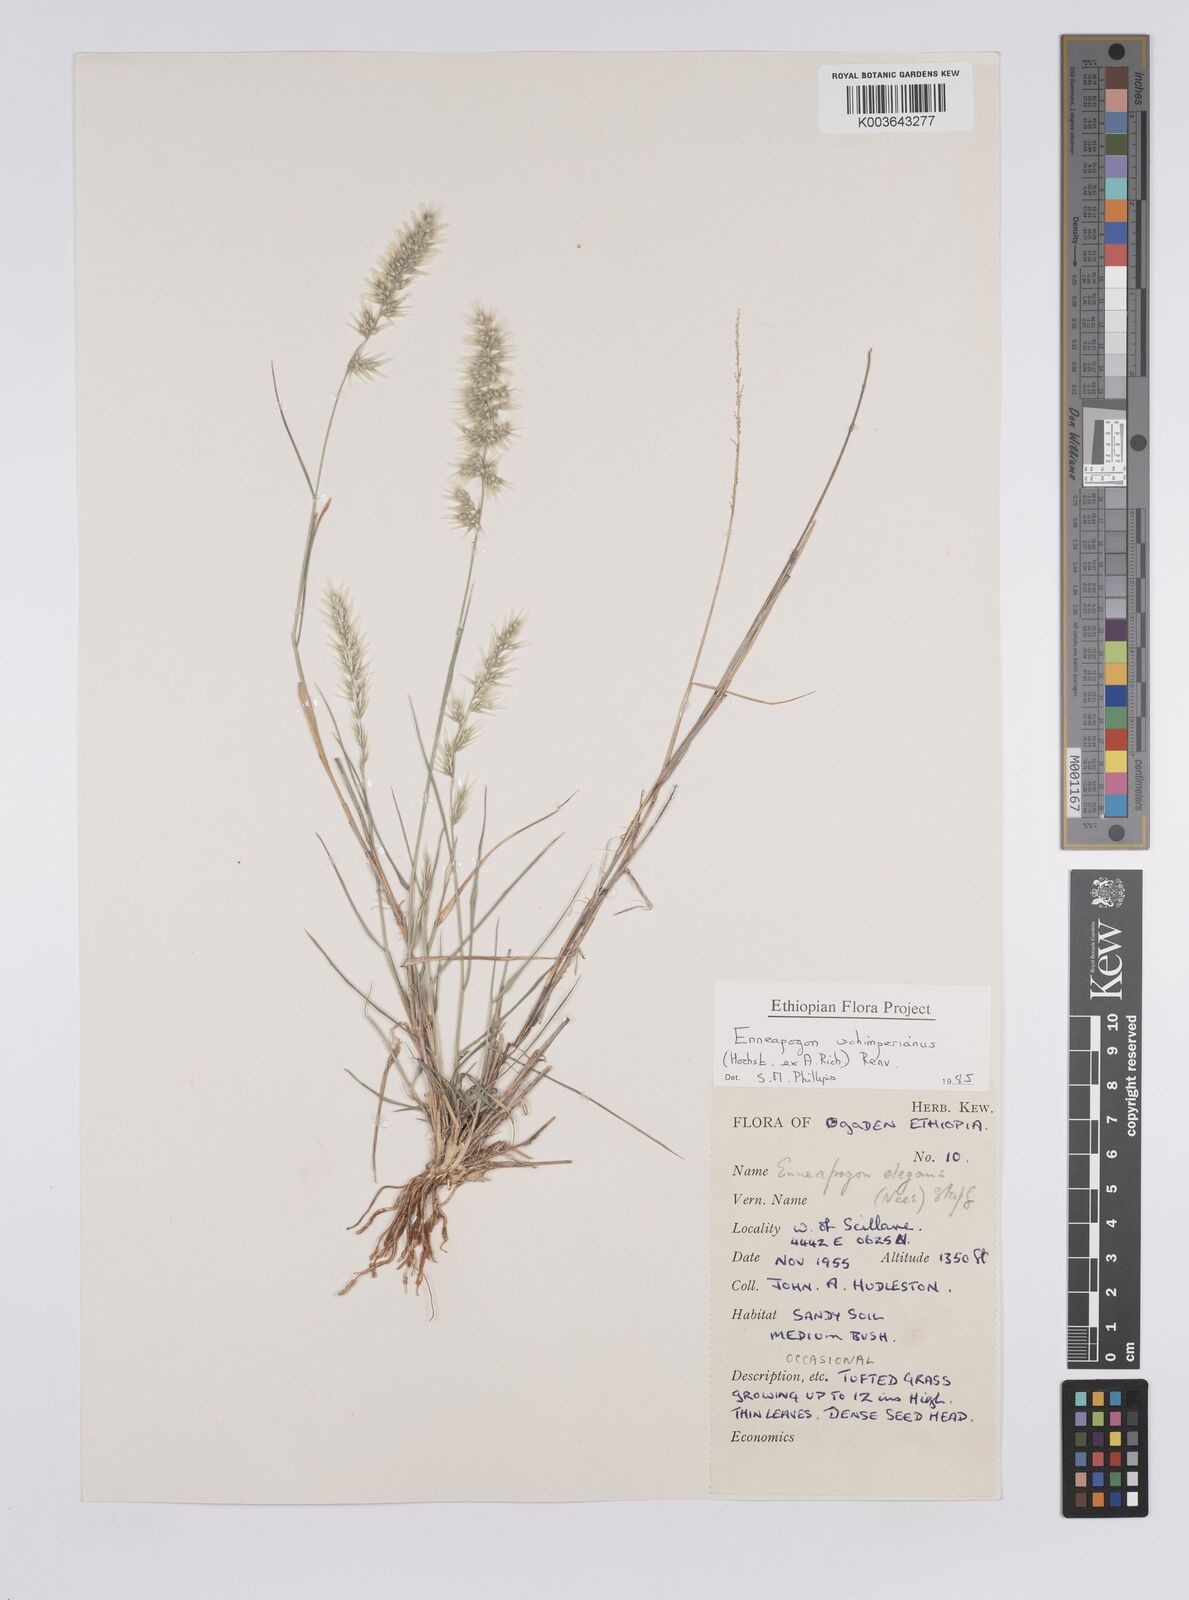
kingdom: Plantae
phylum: Tracheophyta
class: Liliopsida
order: Poales
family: Poaceae
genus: Enneapogon
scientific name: Enneapogon persicus
